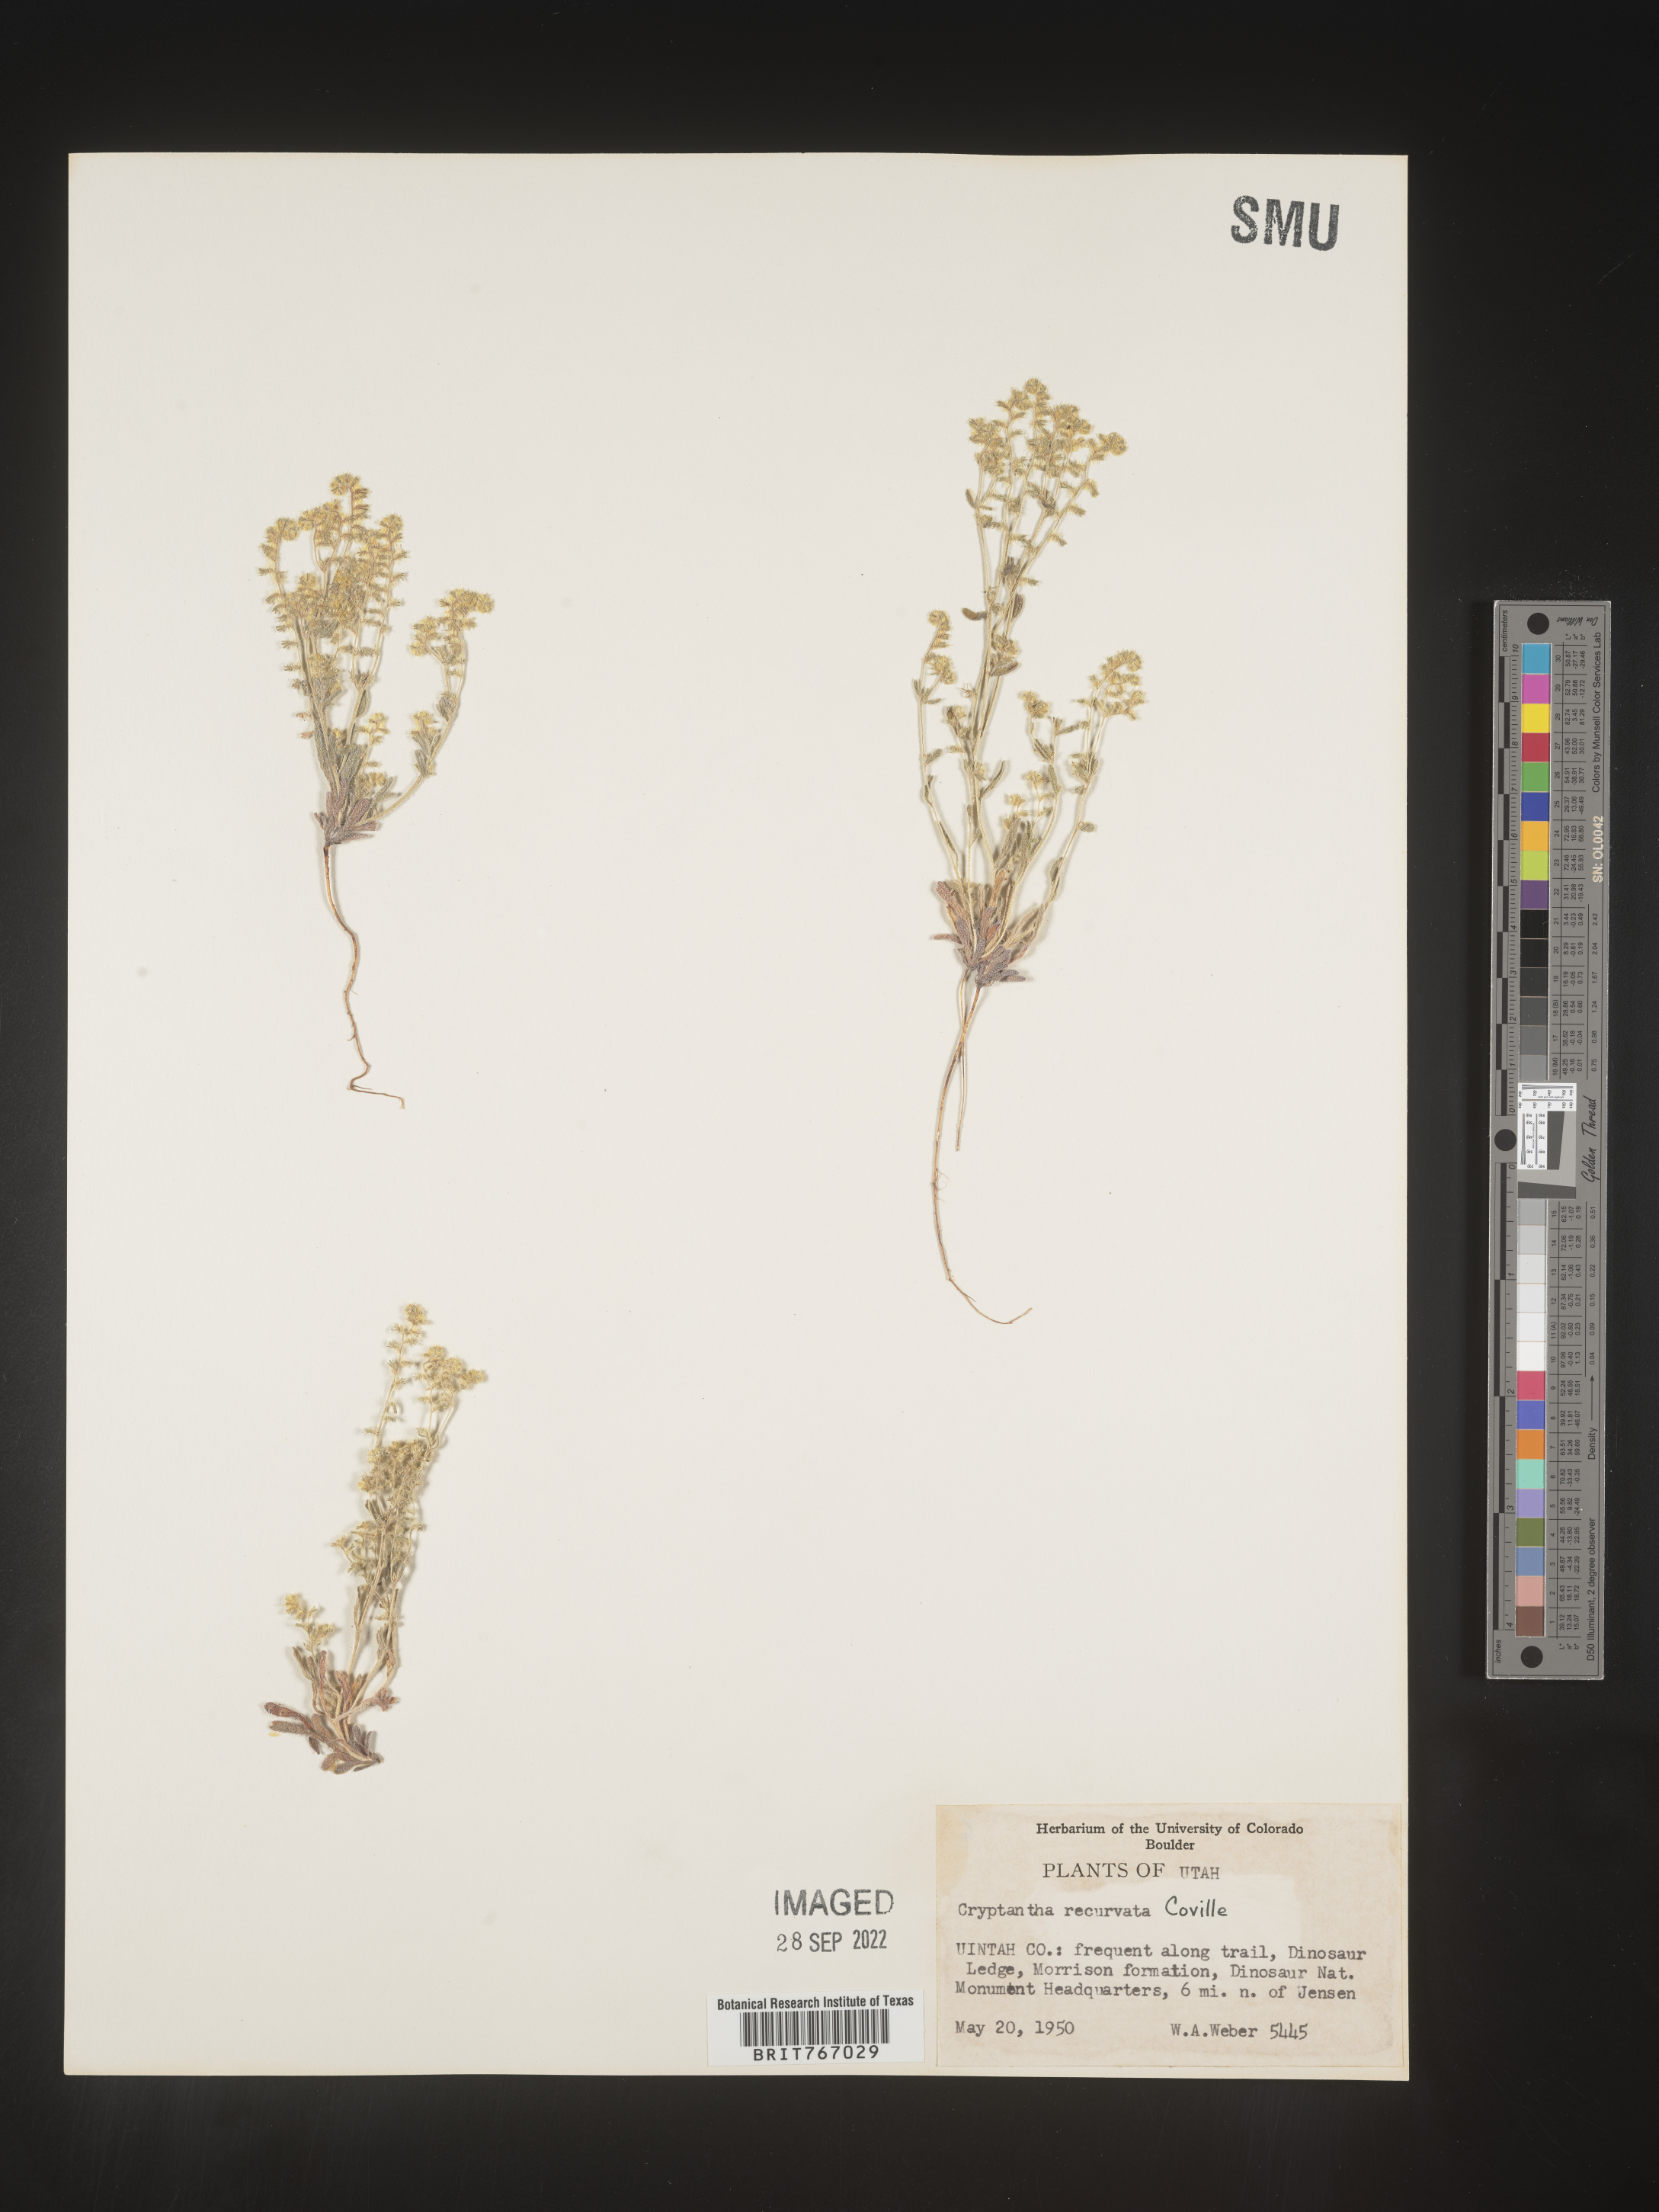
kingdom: Plantae
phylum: Tracheophyta
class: Magnoliopsida
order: Boraginales
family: Boraginaceae
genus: Cryptantha
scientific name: Cryptantha
